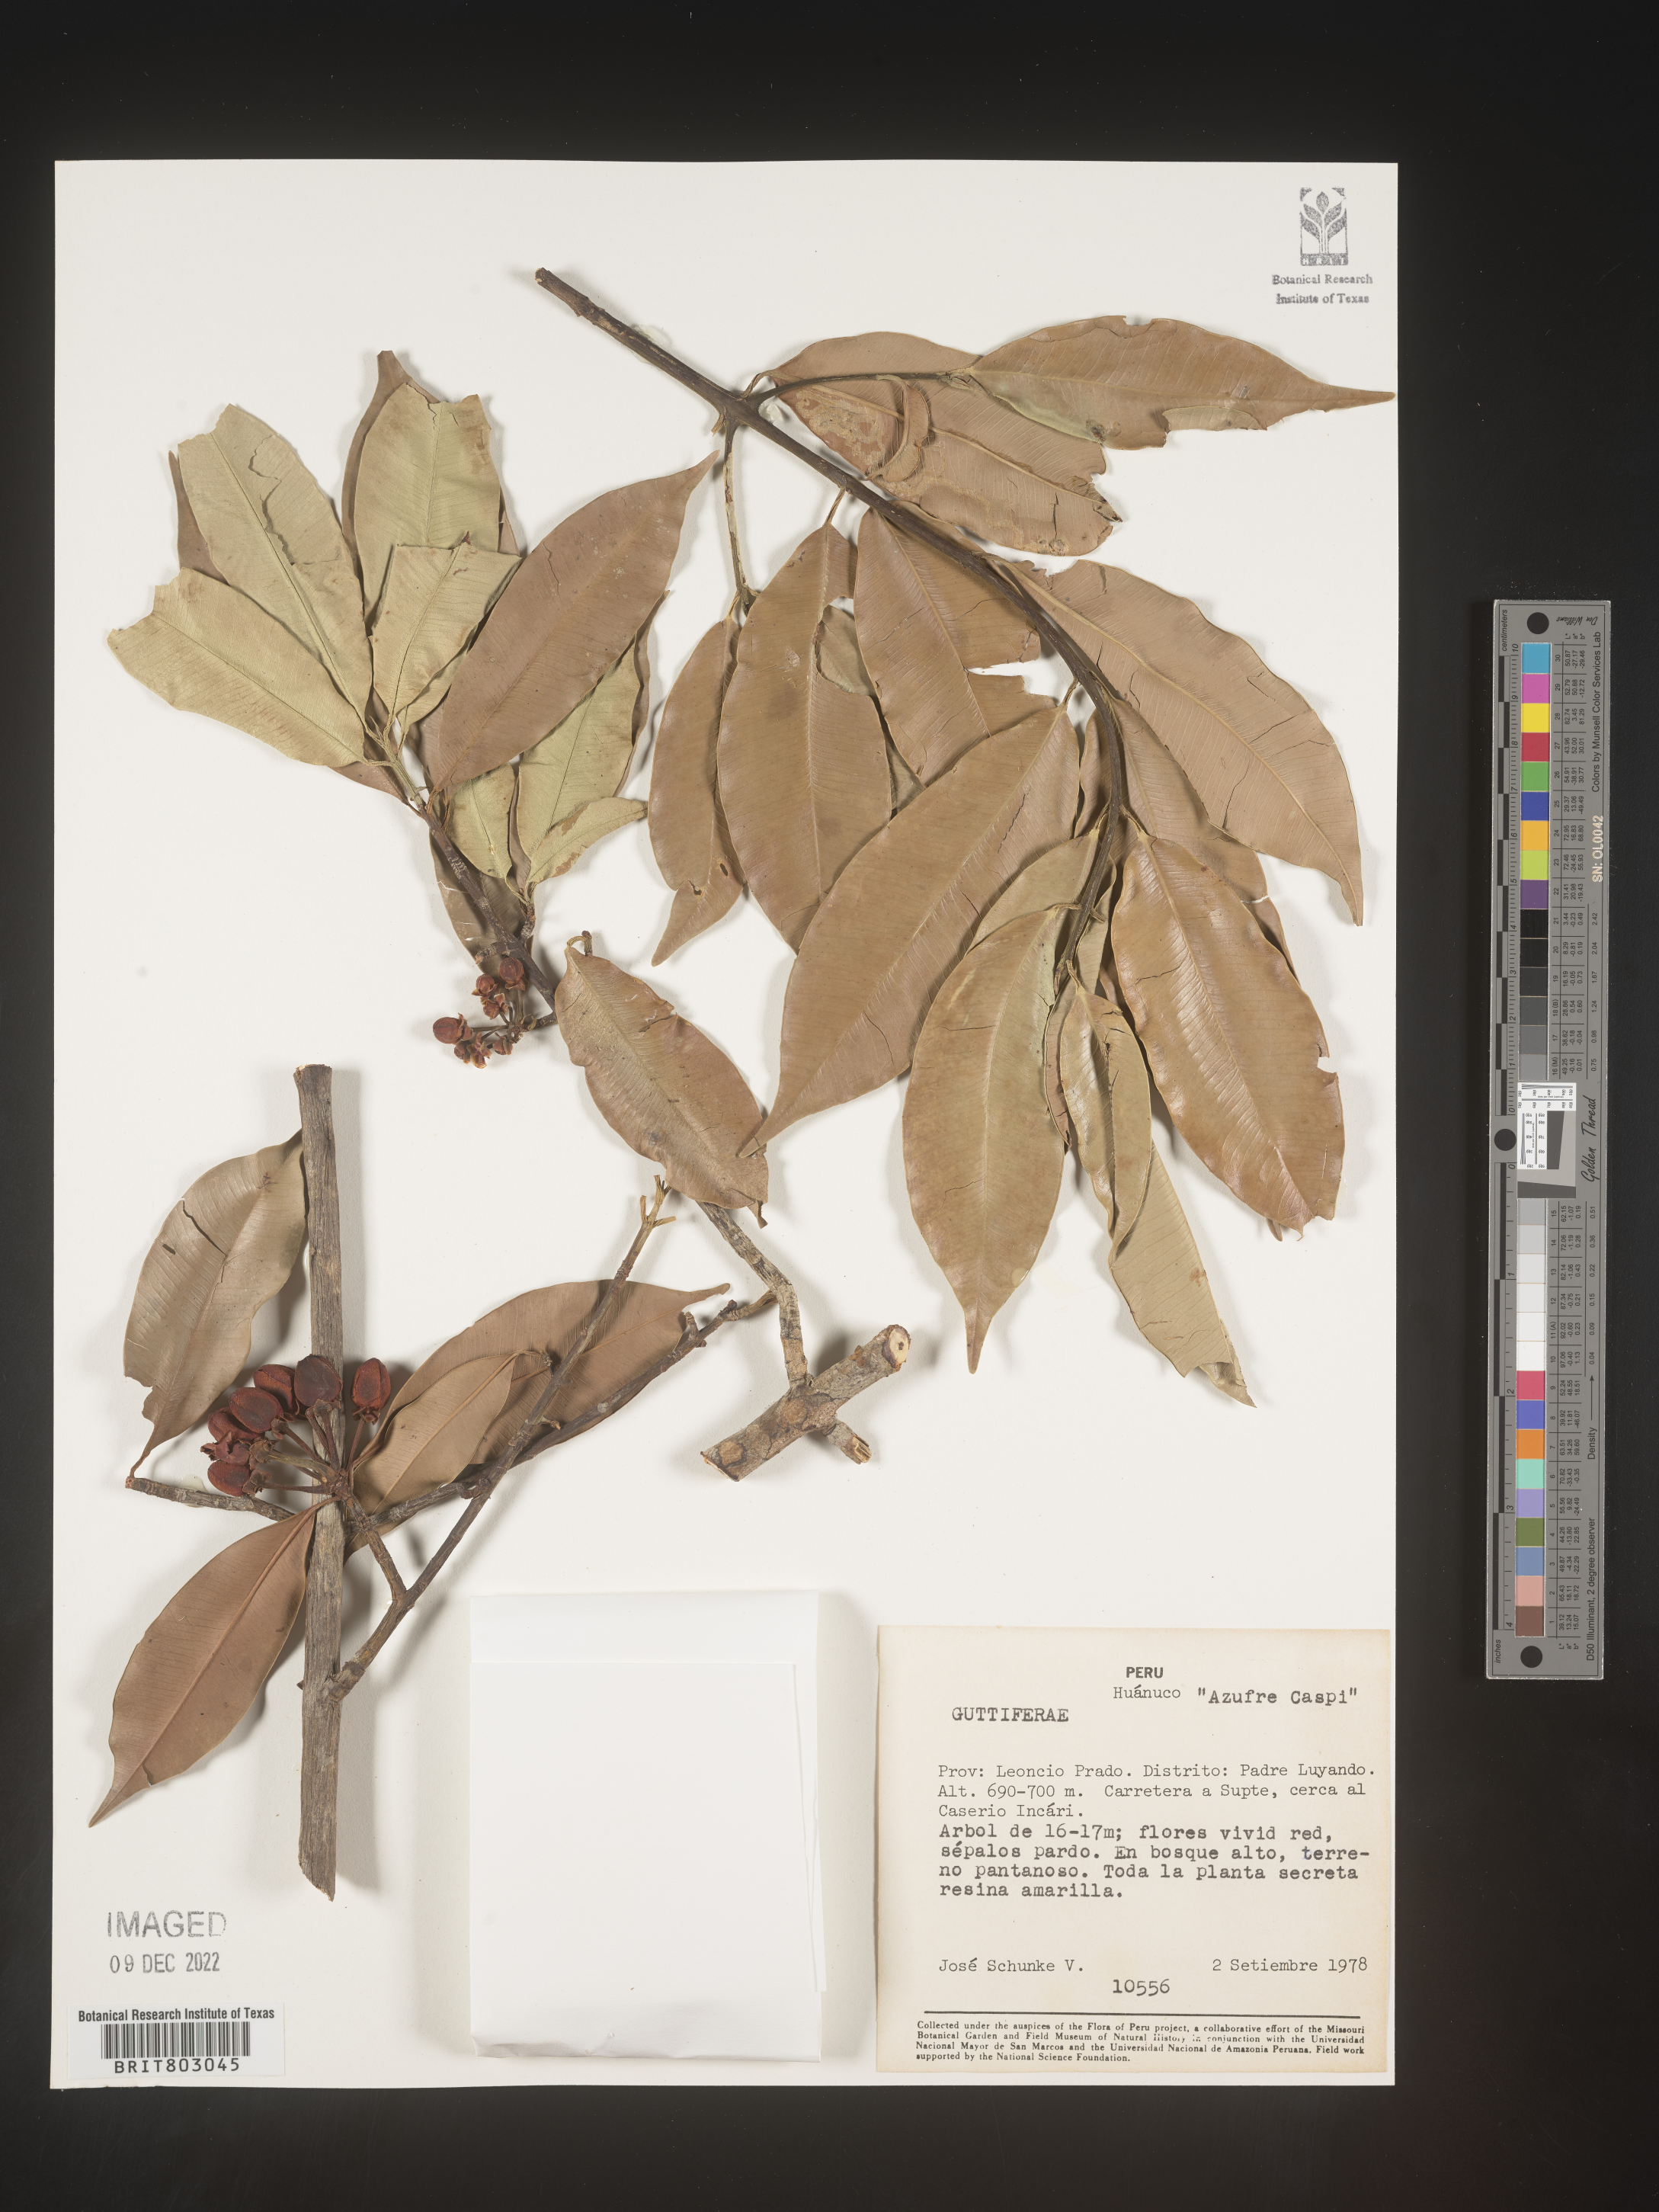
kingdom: Plantae
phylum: Tracheophyta
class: Magnoliopsida
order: Malpighiales
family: Clusiaceae
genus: Symphonia
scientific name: Symphonia
